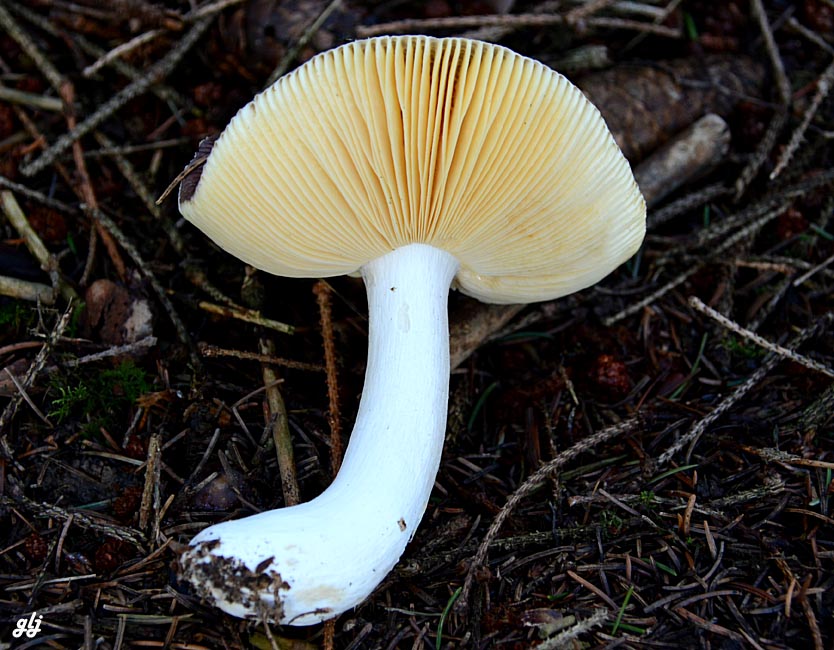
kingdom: Fungi
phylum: Basidiomycota
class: Agaricomycetes
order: Russulales
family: Russulaceae
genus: Russula
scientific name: Russula
